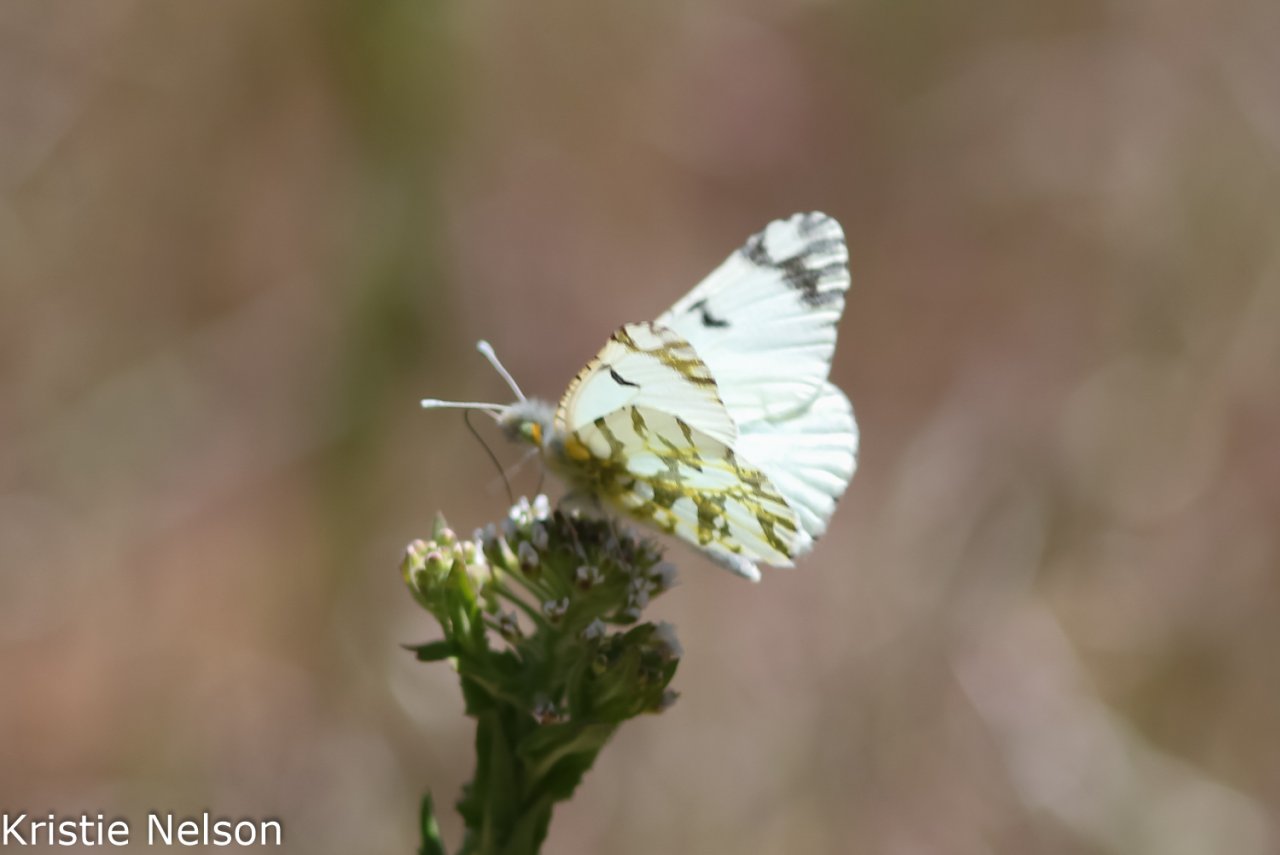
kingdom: Animalia
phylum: Arthropoda
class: Insecta
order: Lepidoptera
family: Pieridae
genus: Euchloe
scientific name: Euchloe ausonides
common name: Large Marble
